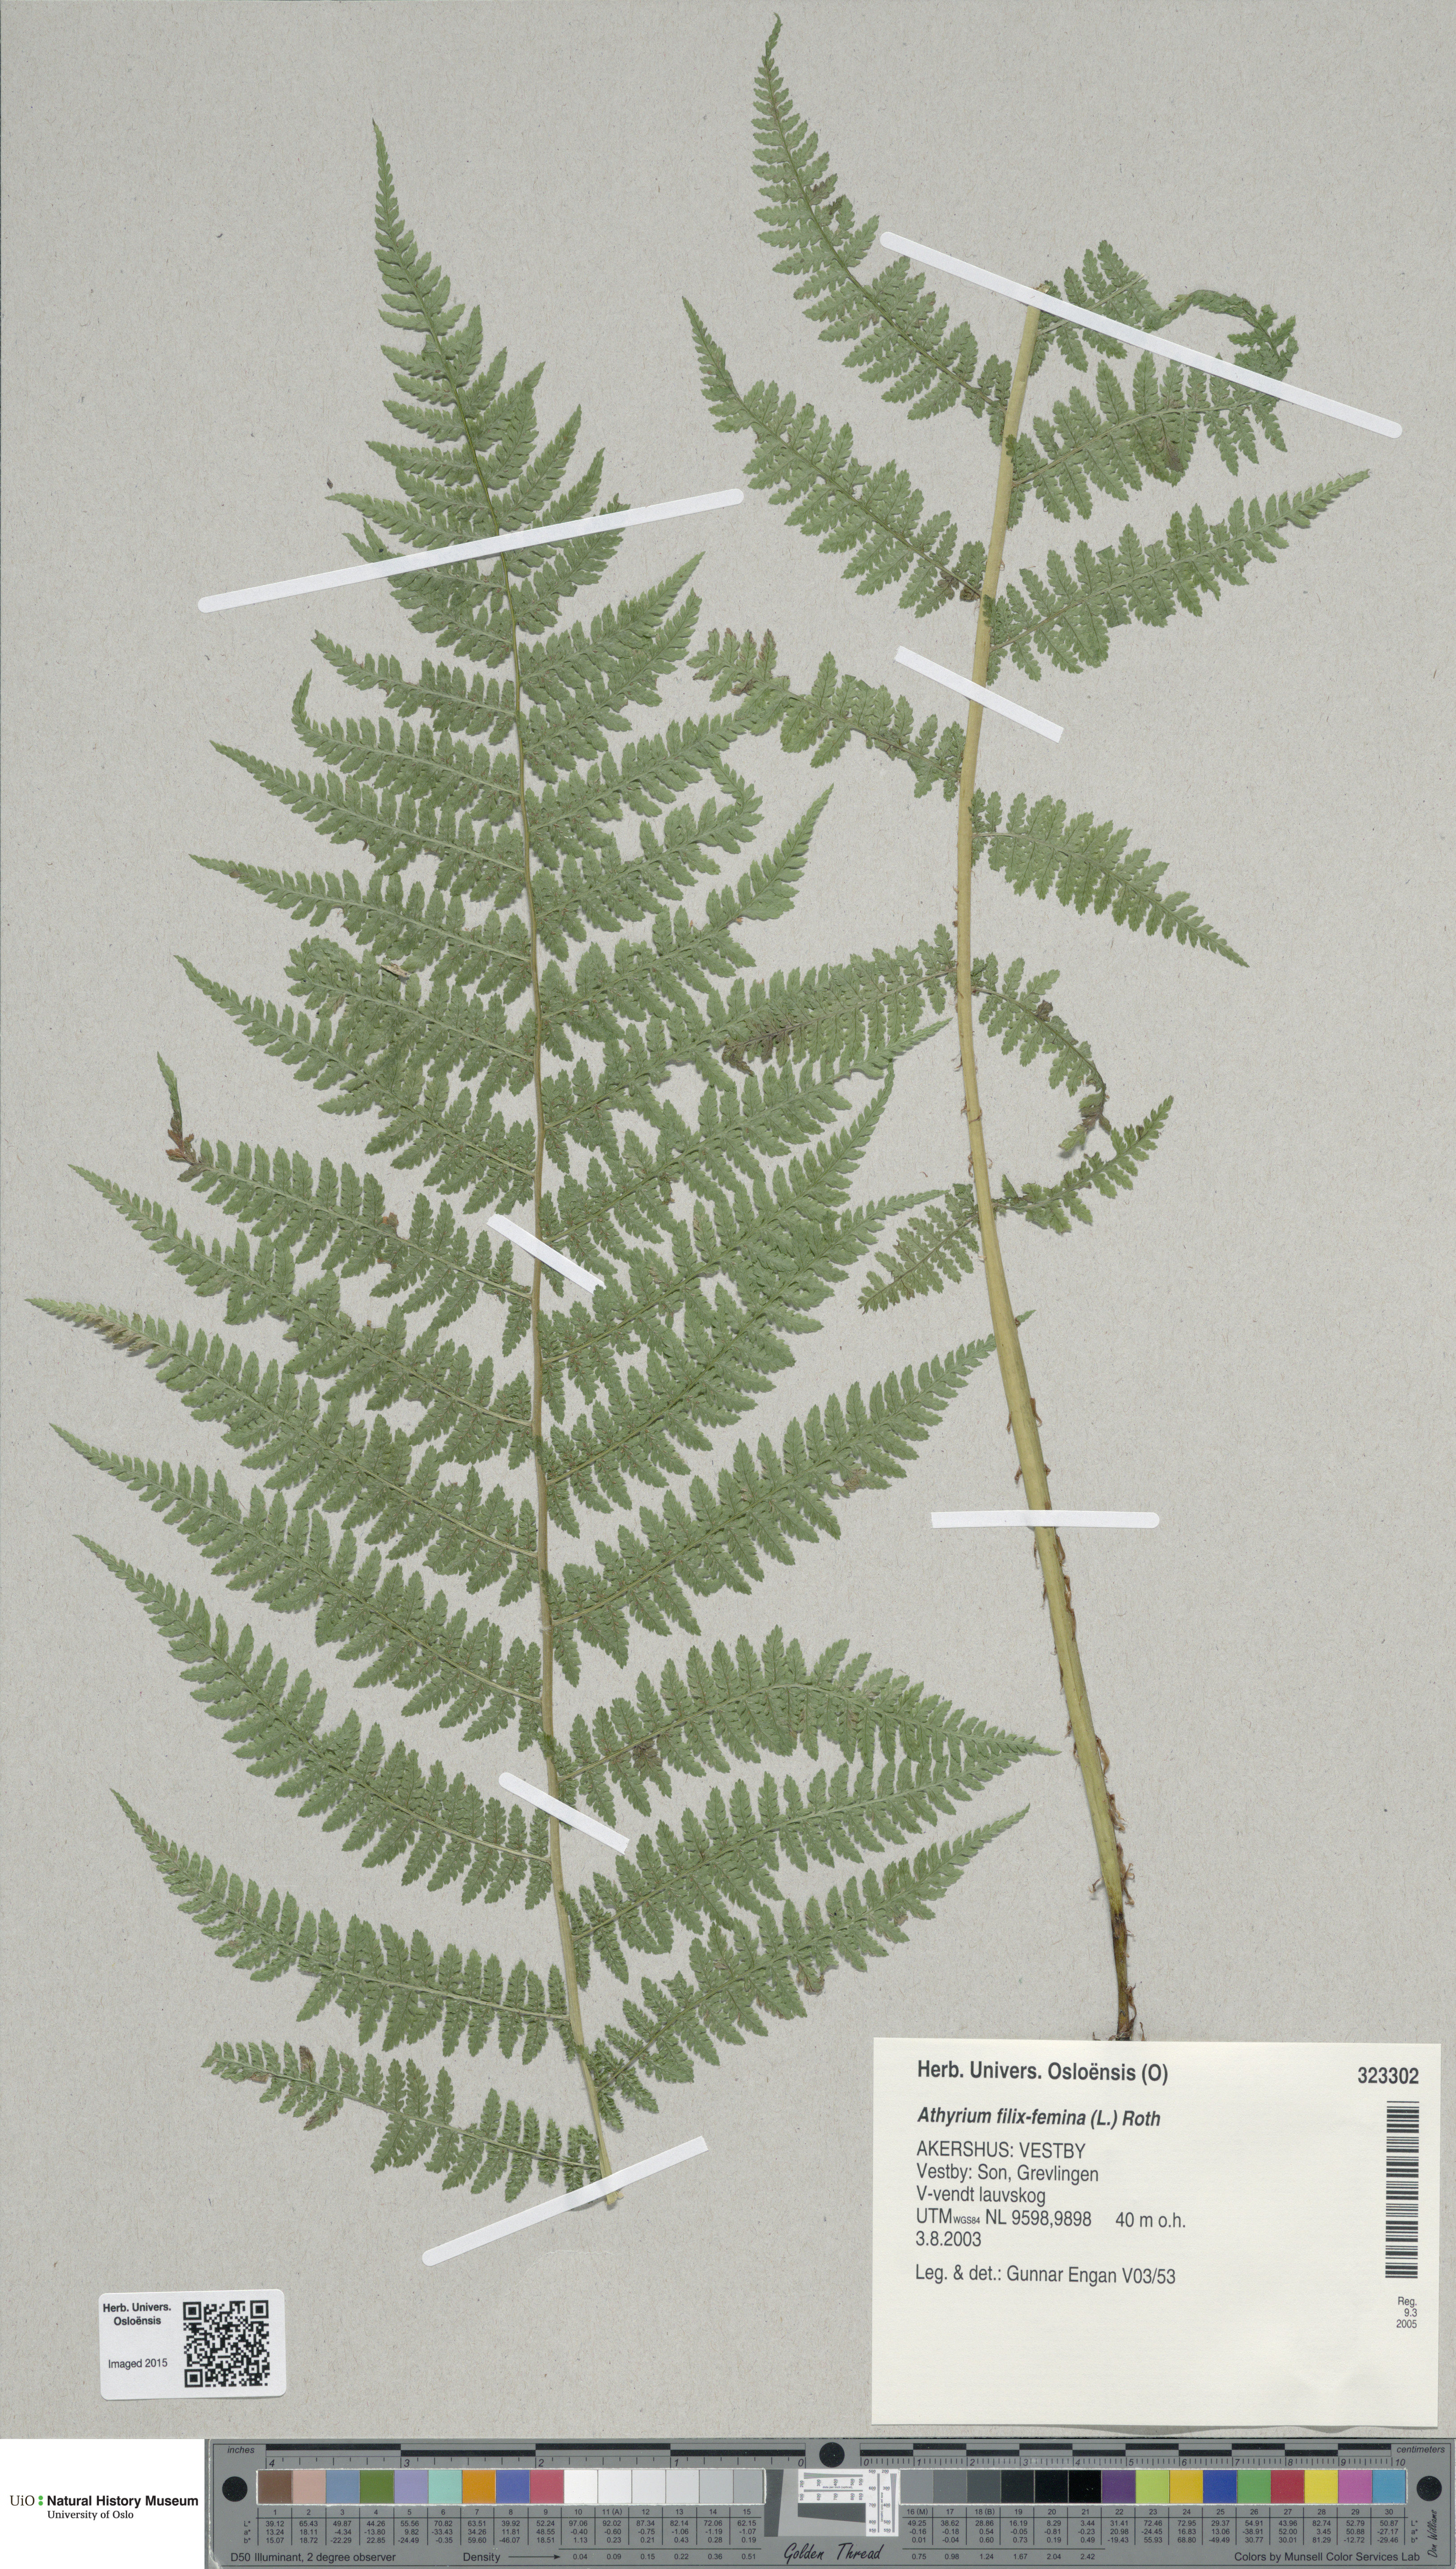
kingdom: Plantae
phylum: Tracheophyta
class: Polypodiopsida
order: Polypodiales
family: Athyriaceae
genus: Athyrium
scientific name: Athyrium filix-femina
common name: Lady fern
